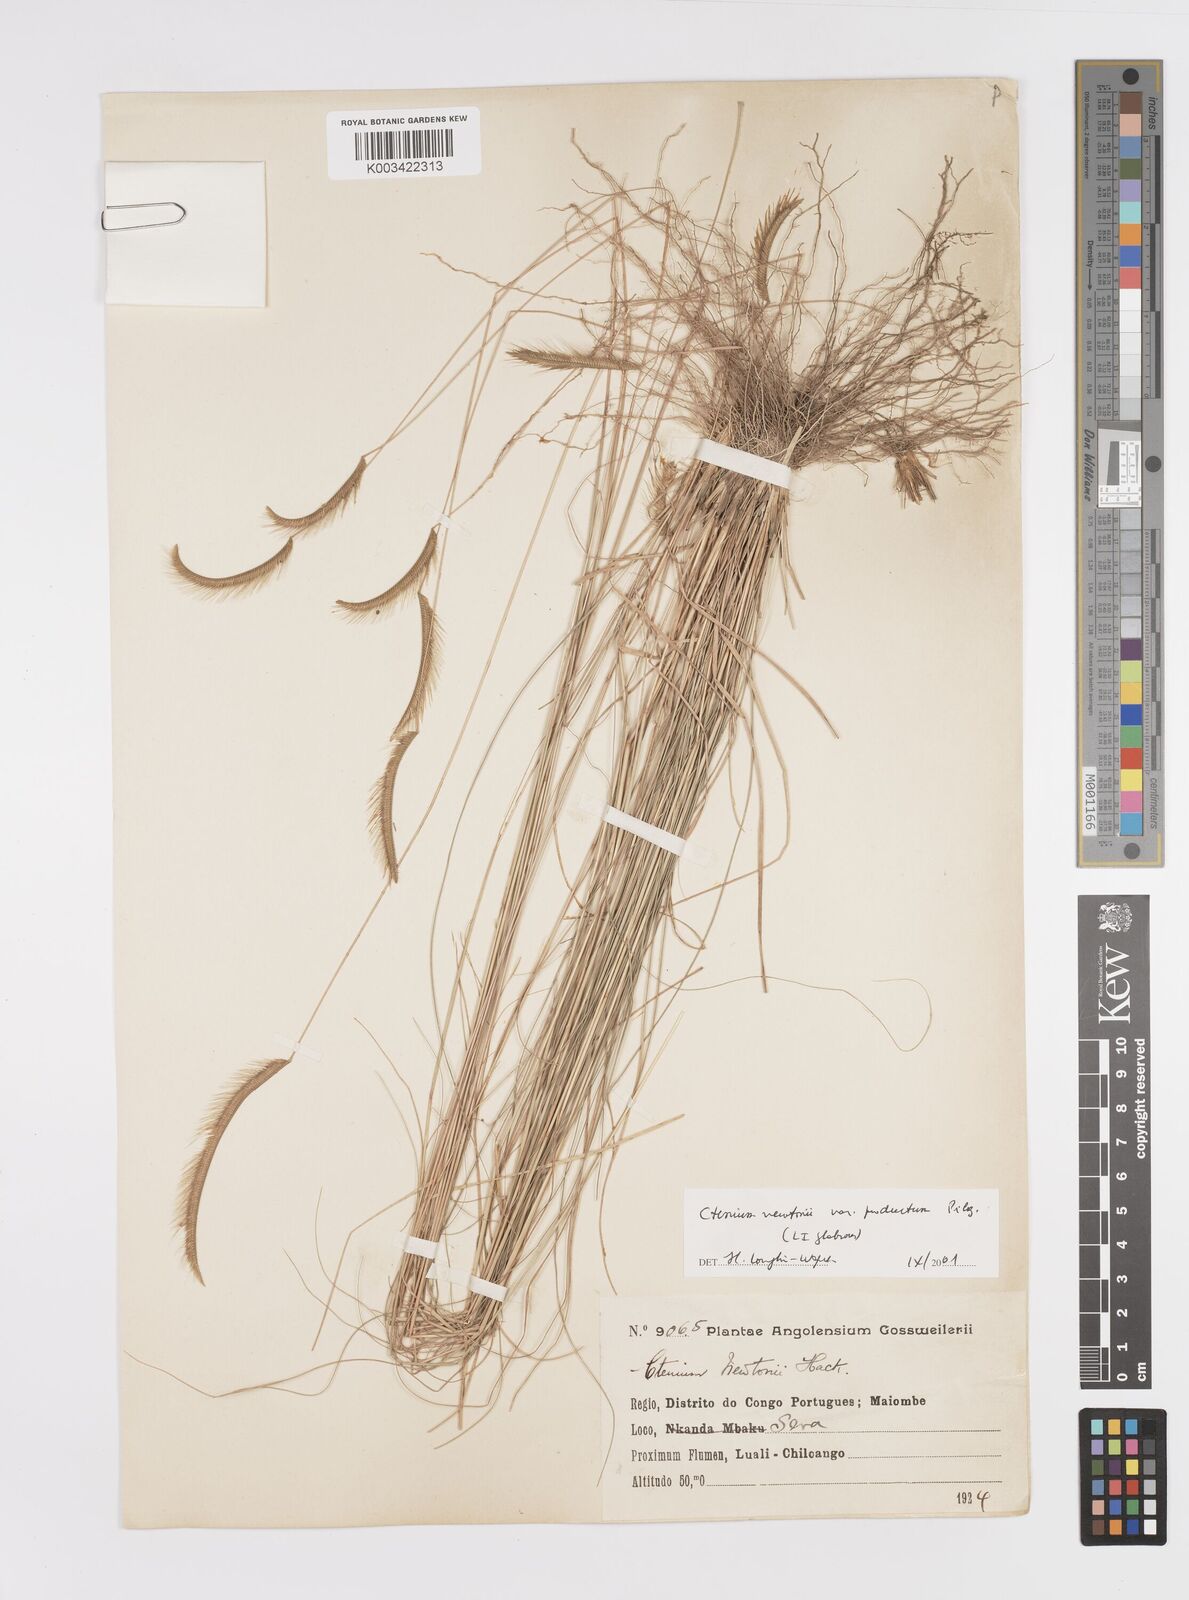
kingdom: Plantae
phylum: Tracheophyta
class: Liliopsida
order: Poales
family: Poaceae
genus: Ctenium
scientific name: Ctenium newtonii
